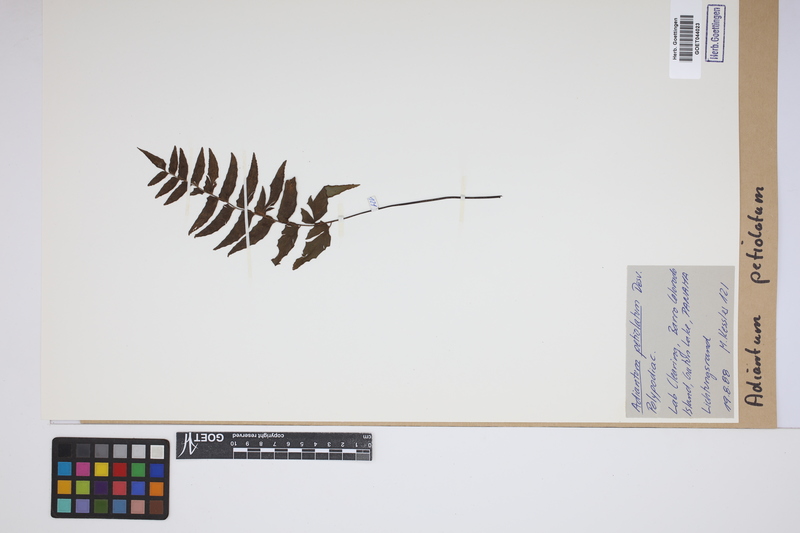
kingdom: Plantae
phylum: Tracheophyta
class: Polypodiopsida
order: Polypodiales
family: Pteridaceae
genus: Adiantum
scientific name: Adiantum petiolatum
